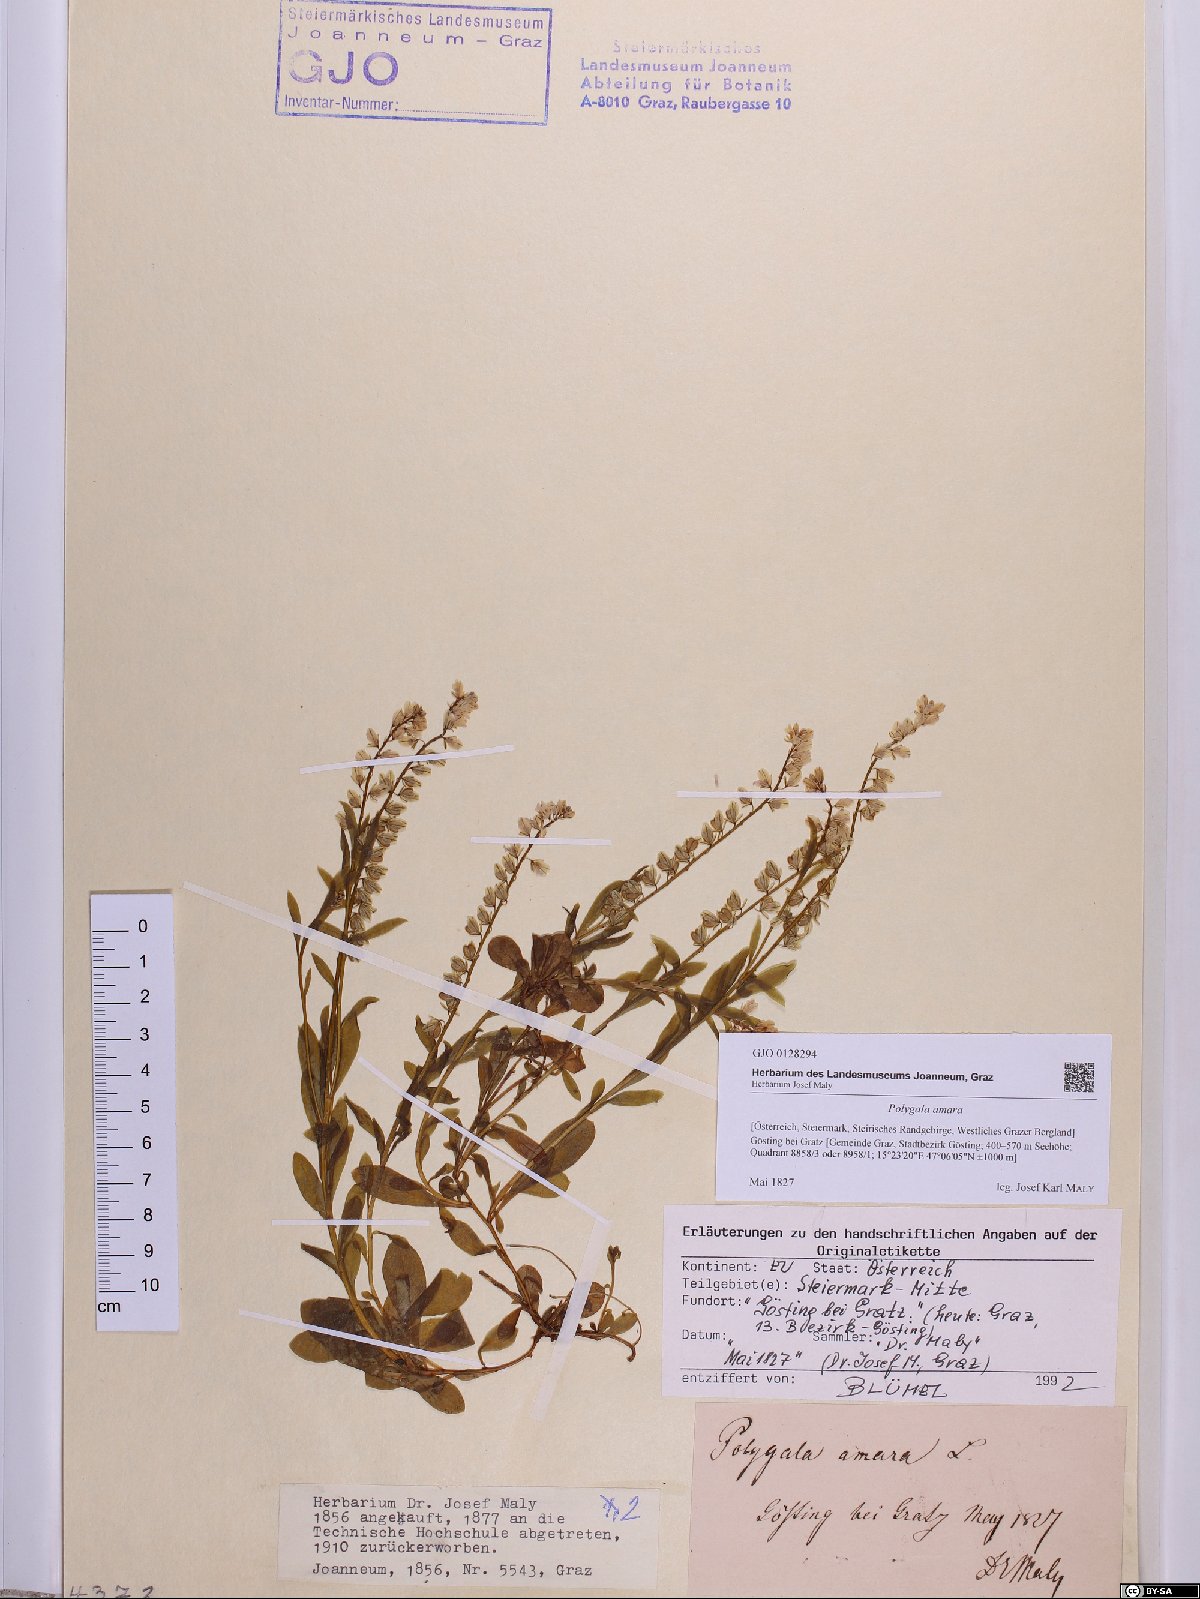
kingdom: Plantae
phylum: Tracheophyta
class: Magnoliopsida
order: Fabales
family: Polygalaceae
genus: Polygala
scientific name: Polygala amara
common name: Milkwort
